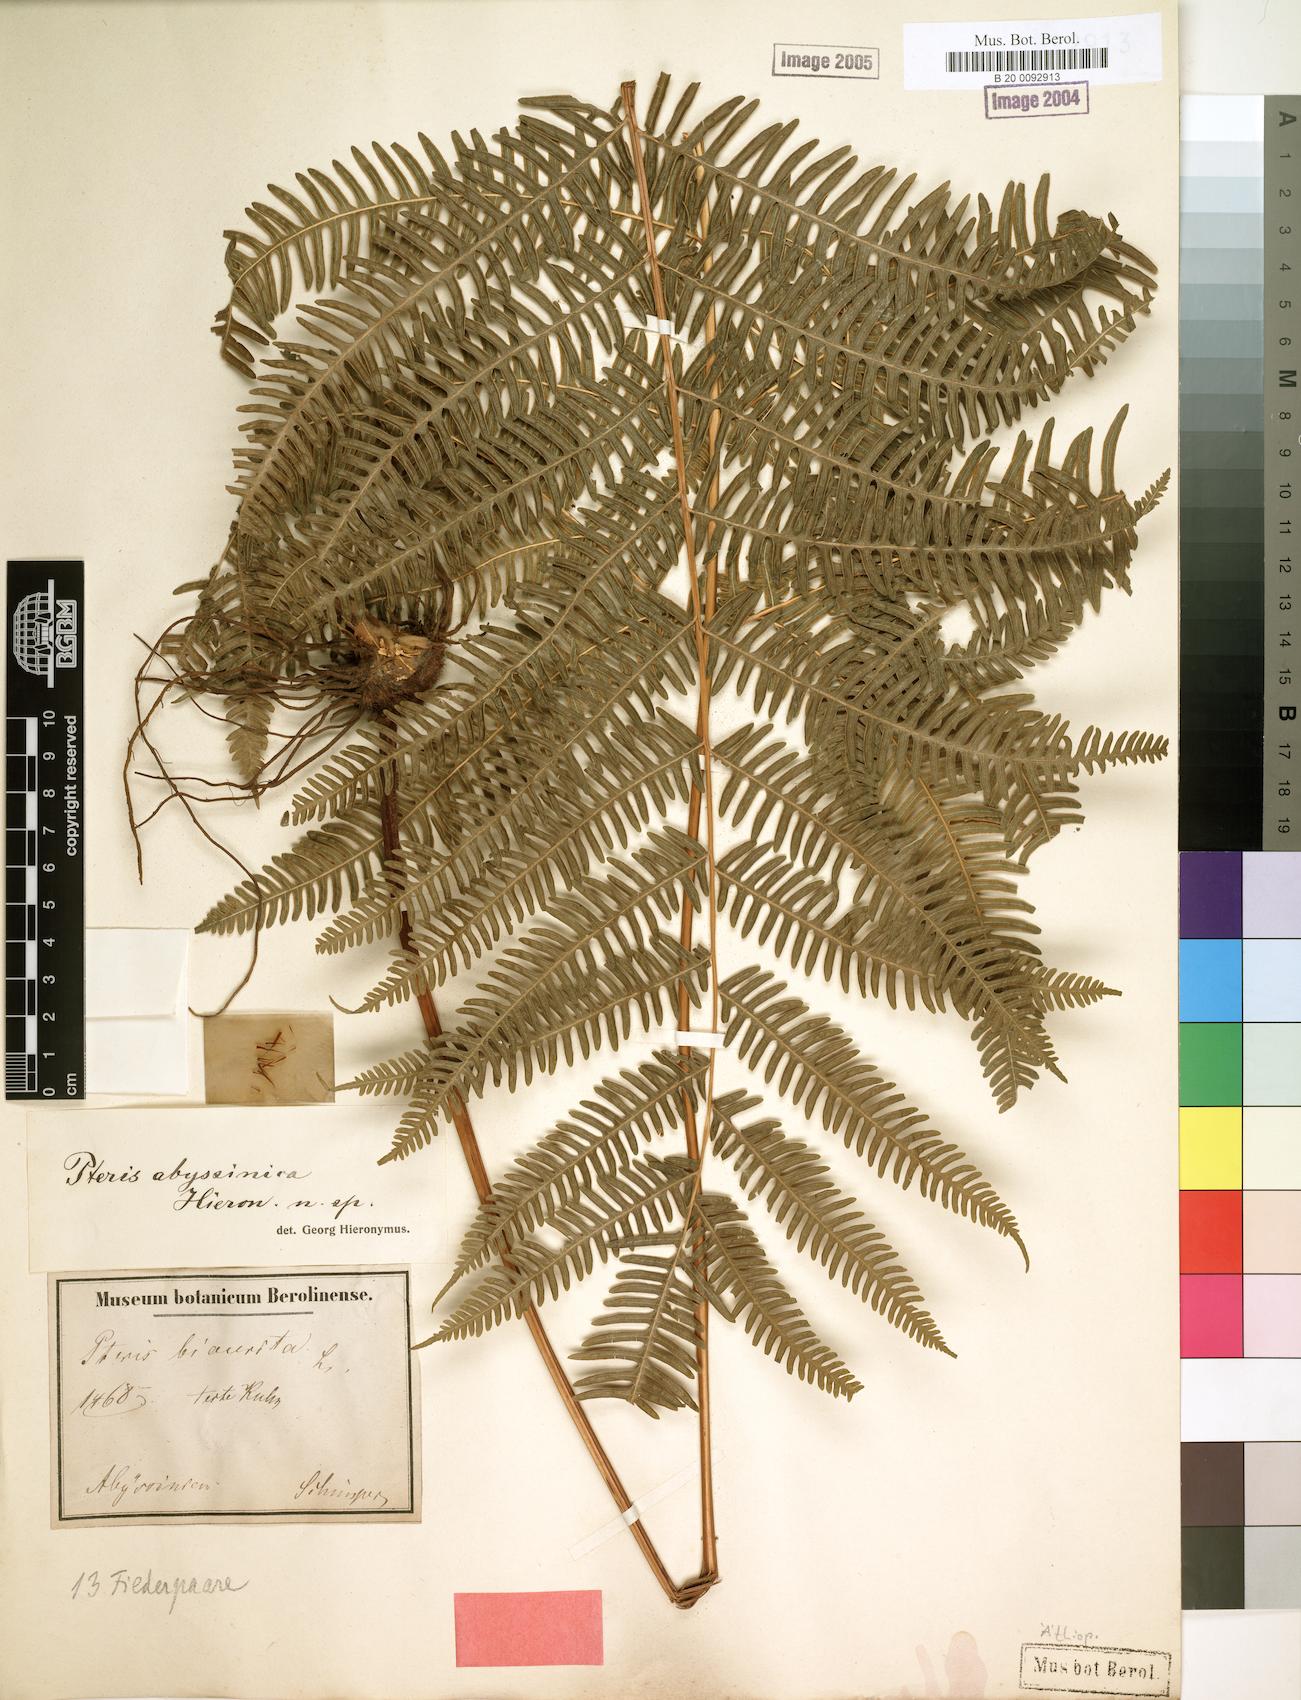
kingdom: Plantae
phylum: Tracheophyta
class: Polypodiopsida
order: Polypodiales
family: Pteridaceae
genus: Pteris
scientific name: Pteris catoptera
